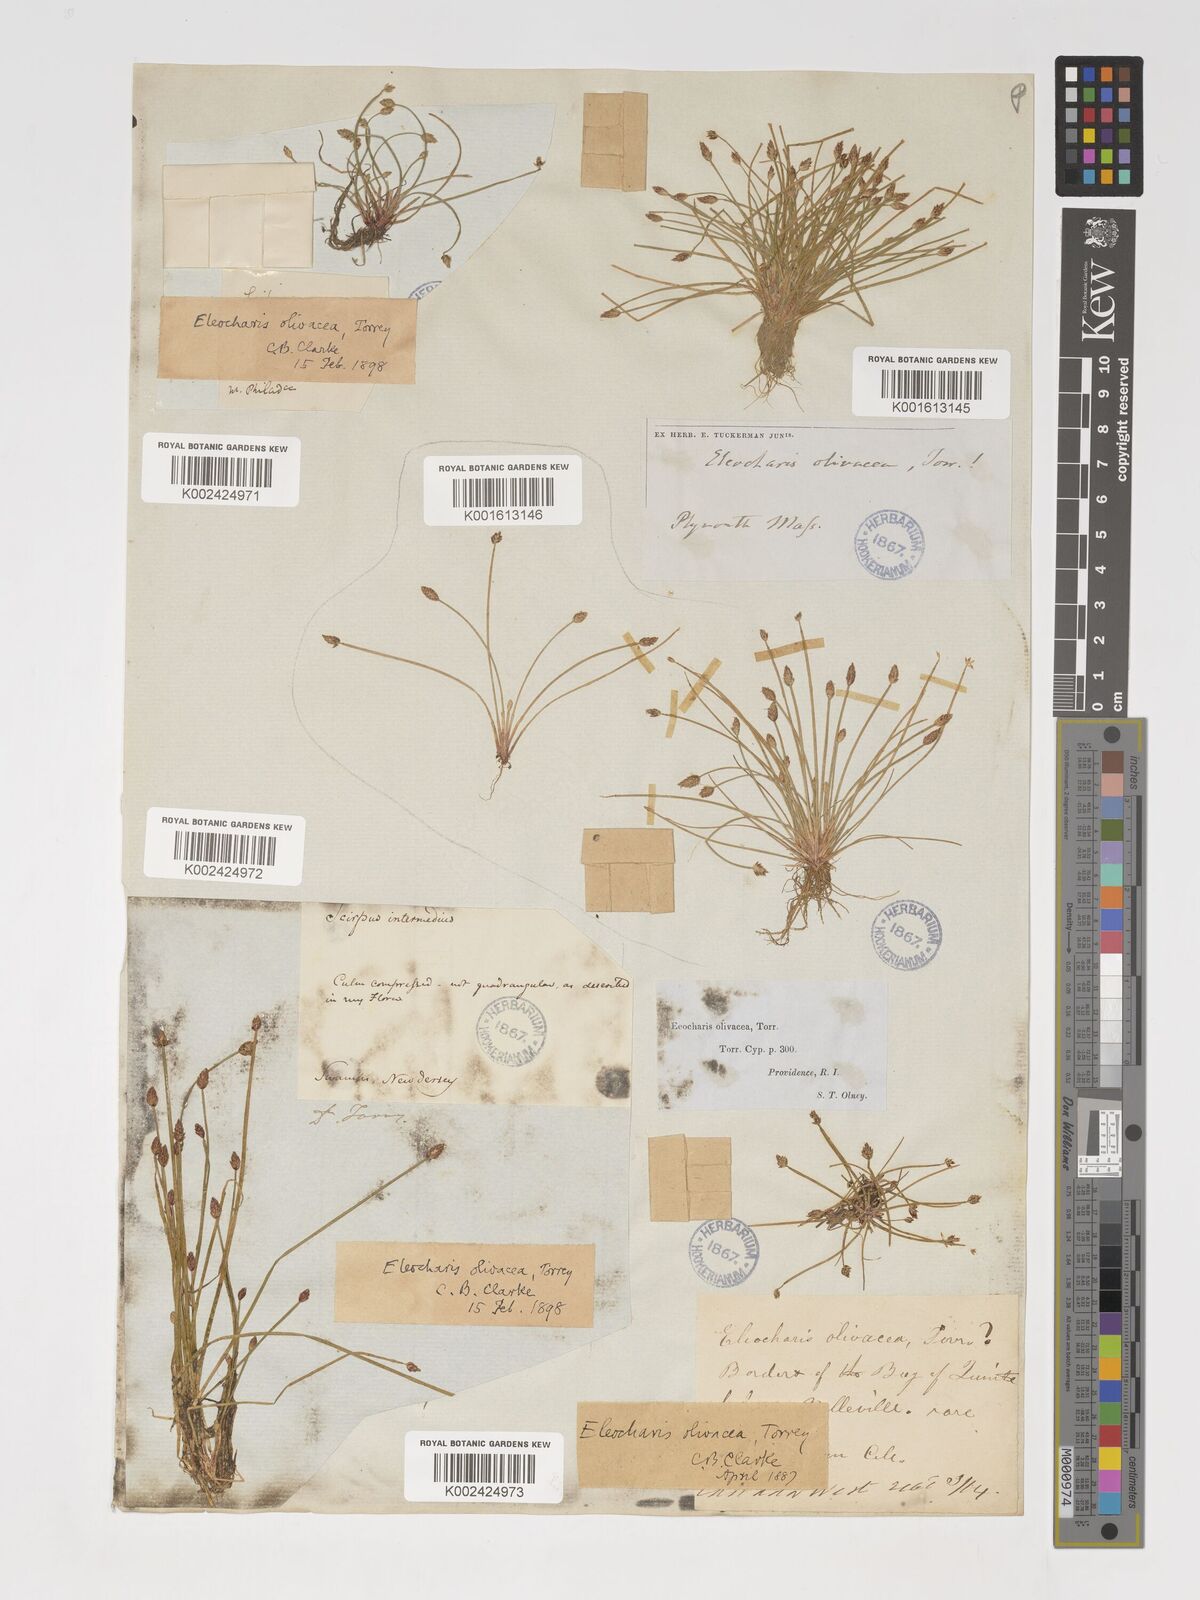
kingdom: Plantae
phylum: Tracheophyta
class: Liliopsida
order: Poales
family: Cyperaceae
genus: Eleocharis
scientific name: Eleocharis flavescens
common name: Yellow spikerush
